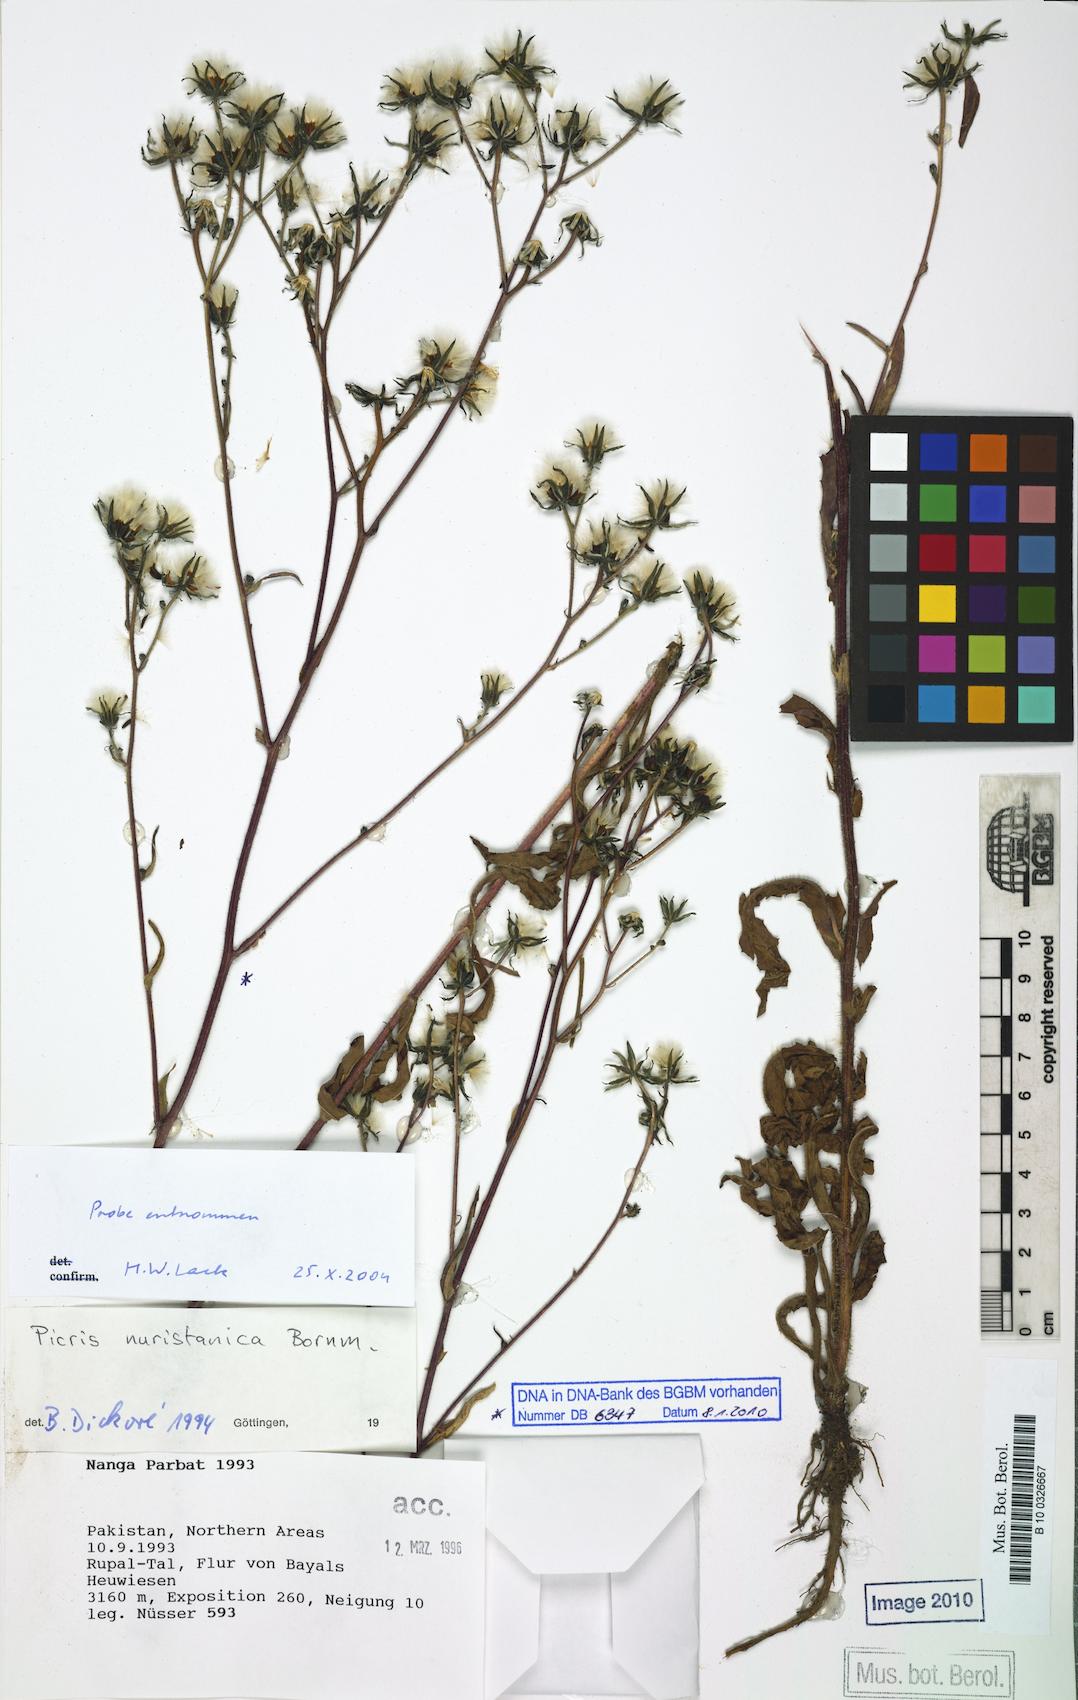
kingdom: Plantae
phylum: Tracheophyta
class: Magnoliopsida
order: Asterales
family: Asteraceae
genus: Picris
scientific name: Picris nuristanica
